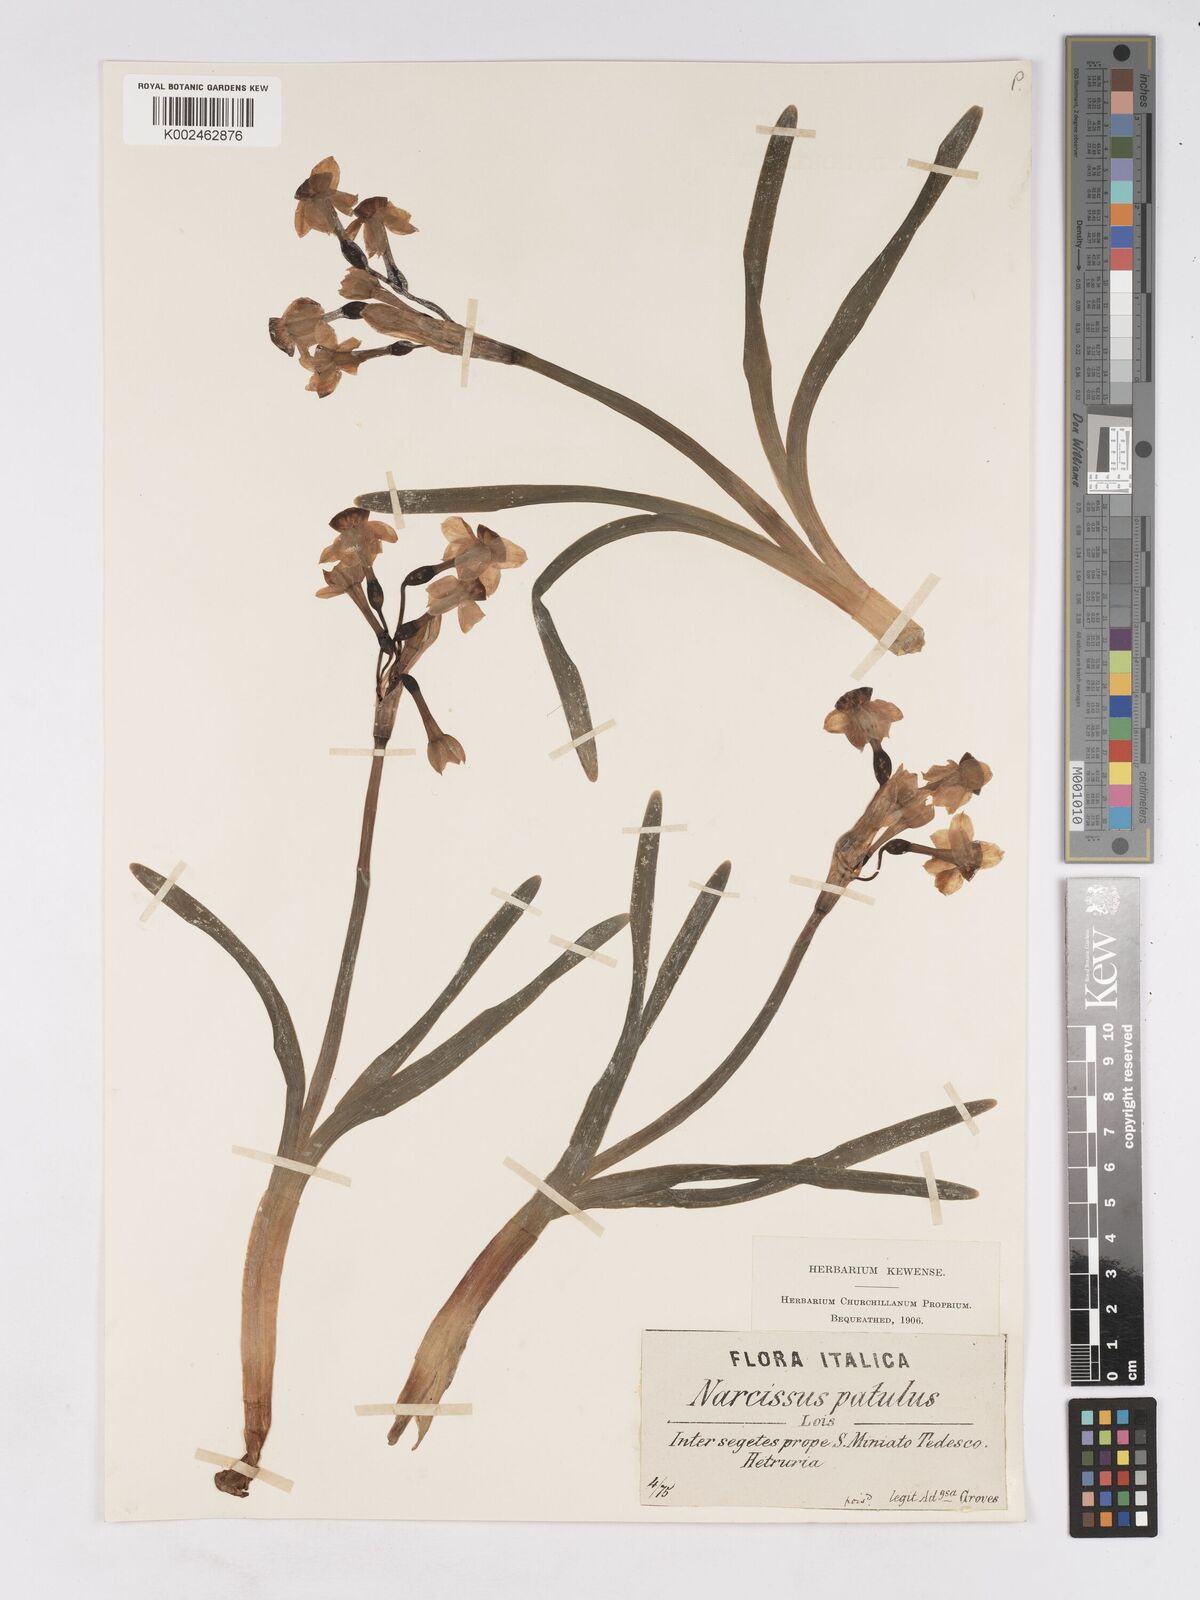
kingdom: Plantae
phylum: Tracheophyta
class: Liliopsida
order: Asparagales
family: Amaryllidaceae
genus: Narcissus
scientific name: Narcissus tazetta
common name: Bunch-flowered daffodil
